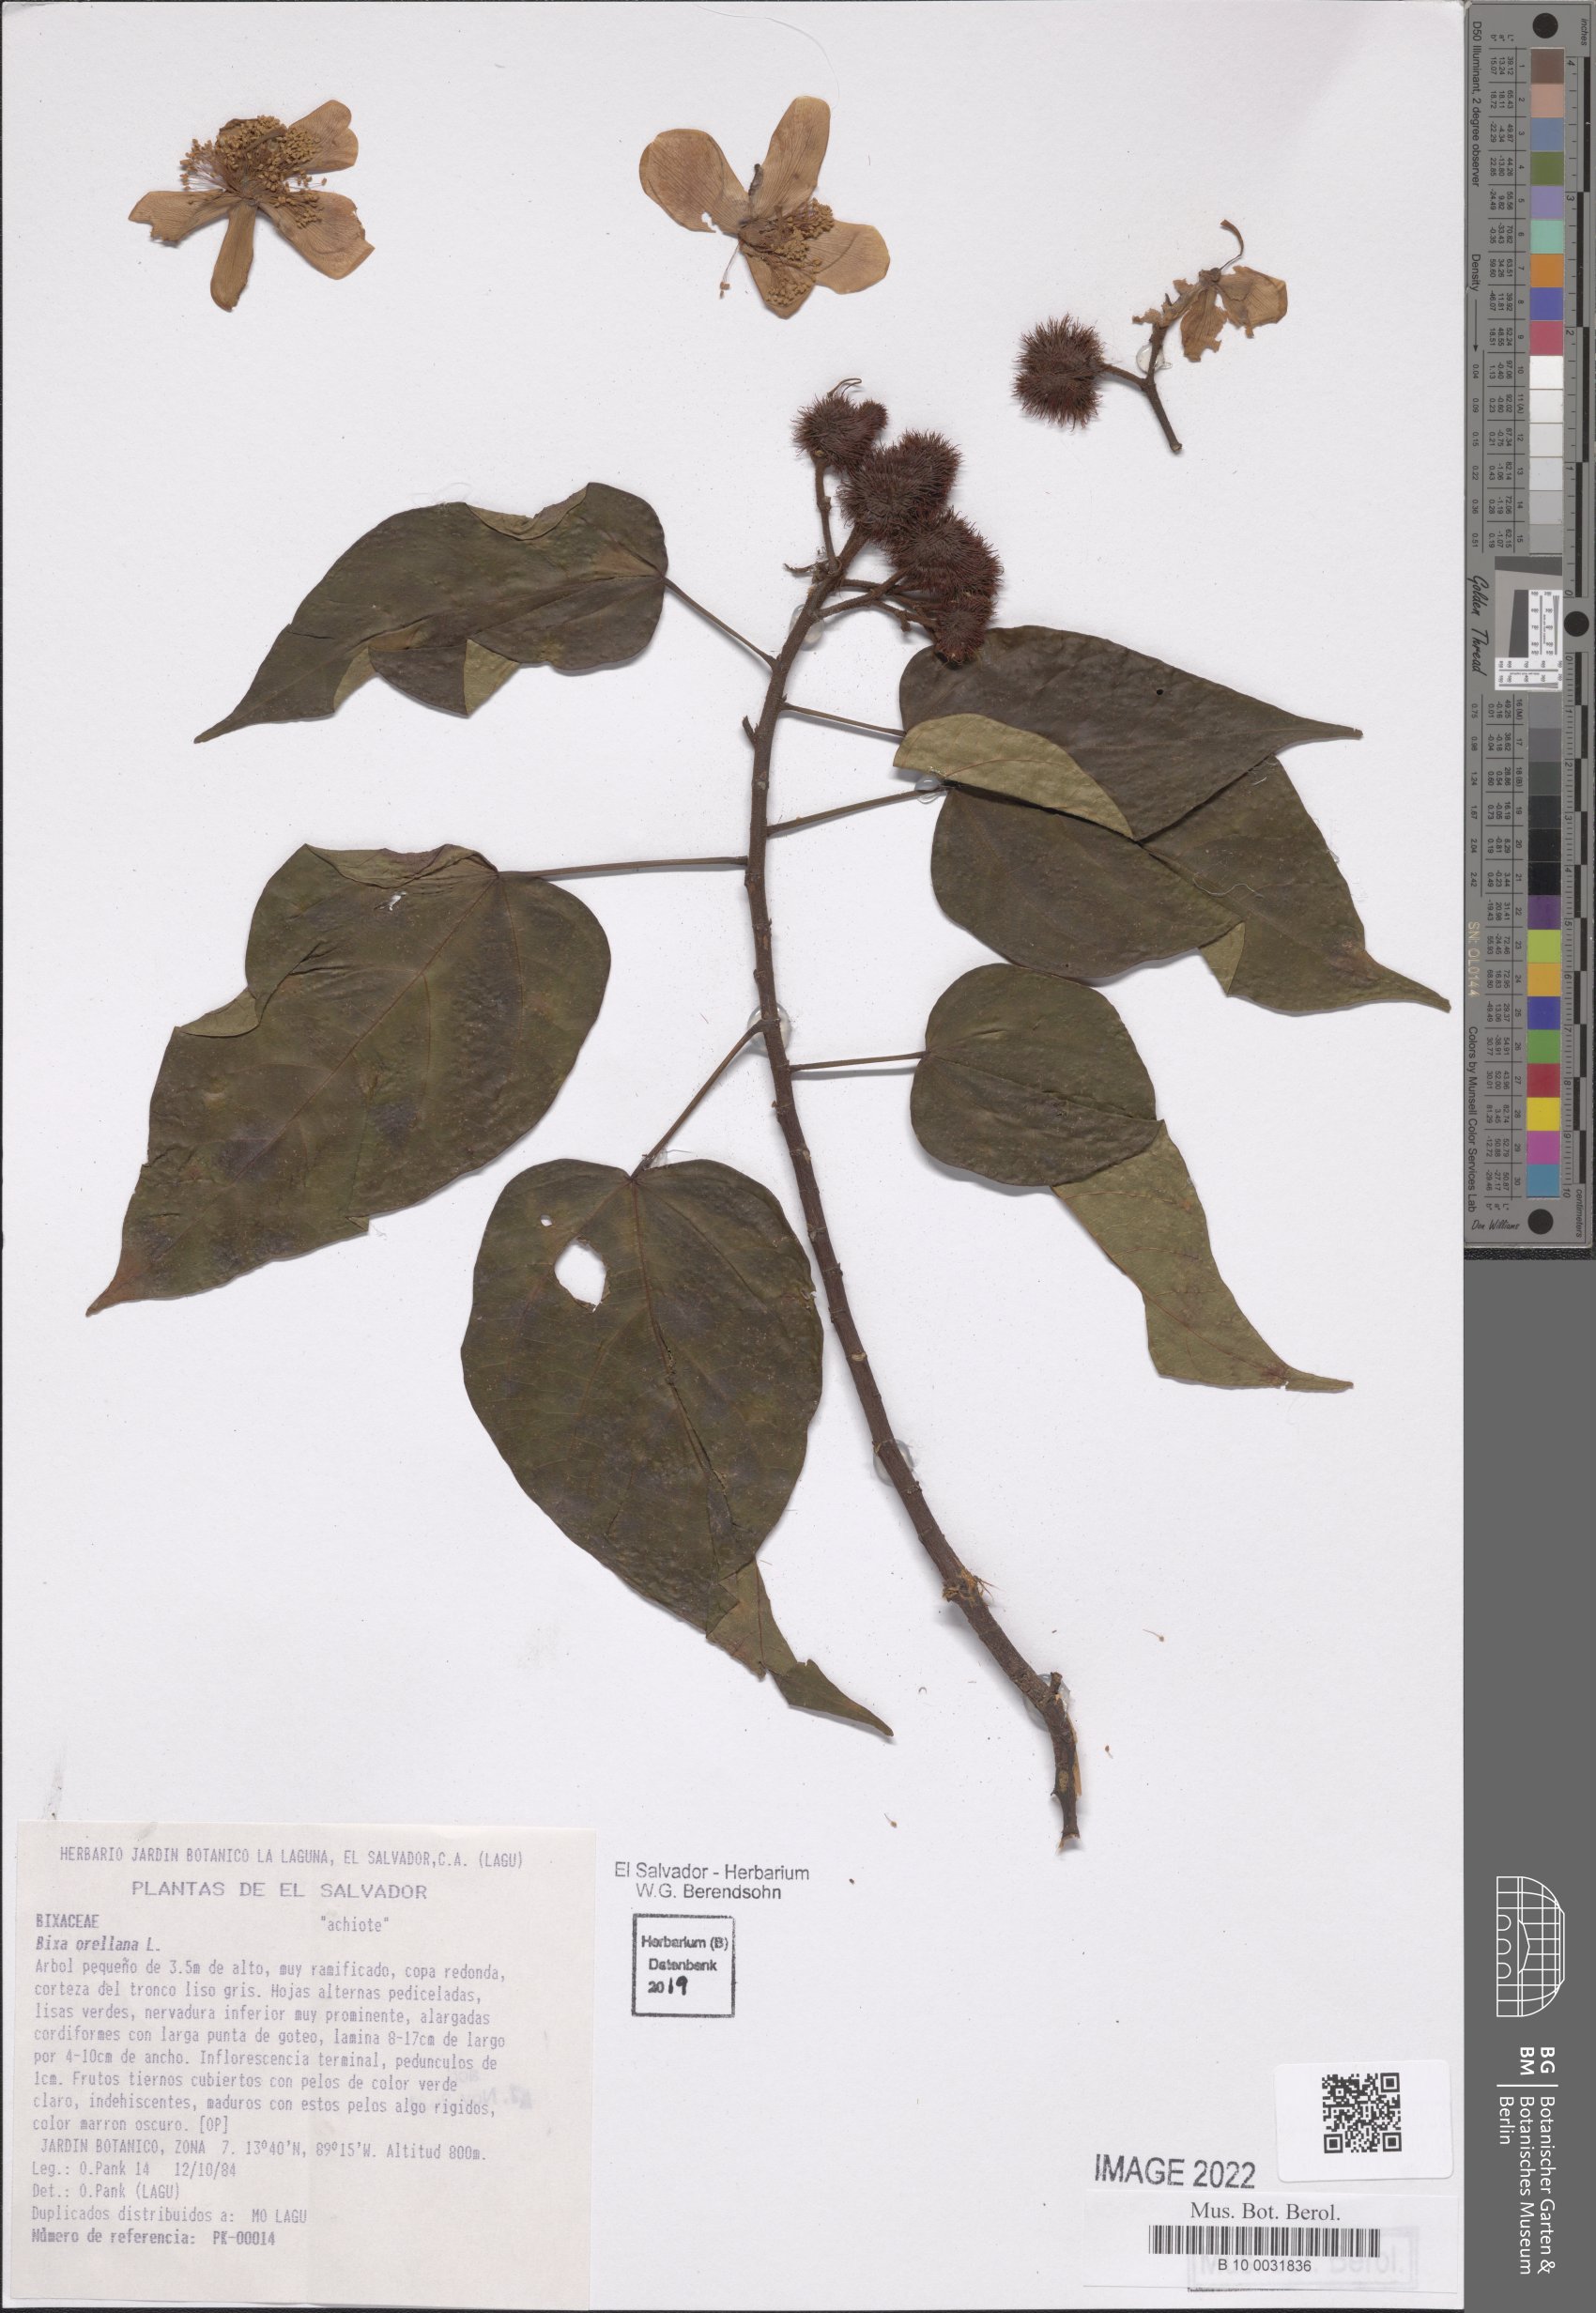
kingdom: Plantae
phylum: Tracheophyta
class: Magnoliopsida
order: Malvales
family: Bixaceae
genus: Bixa
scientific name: Bixa orellana
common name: Lipsticktree
